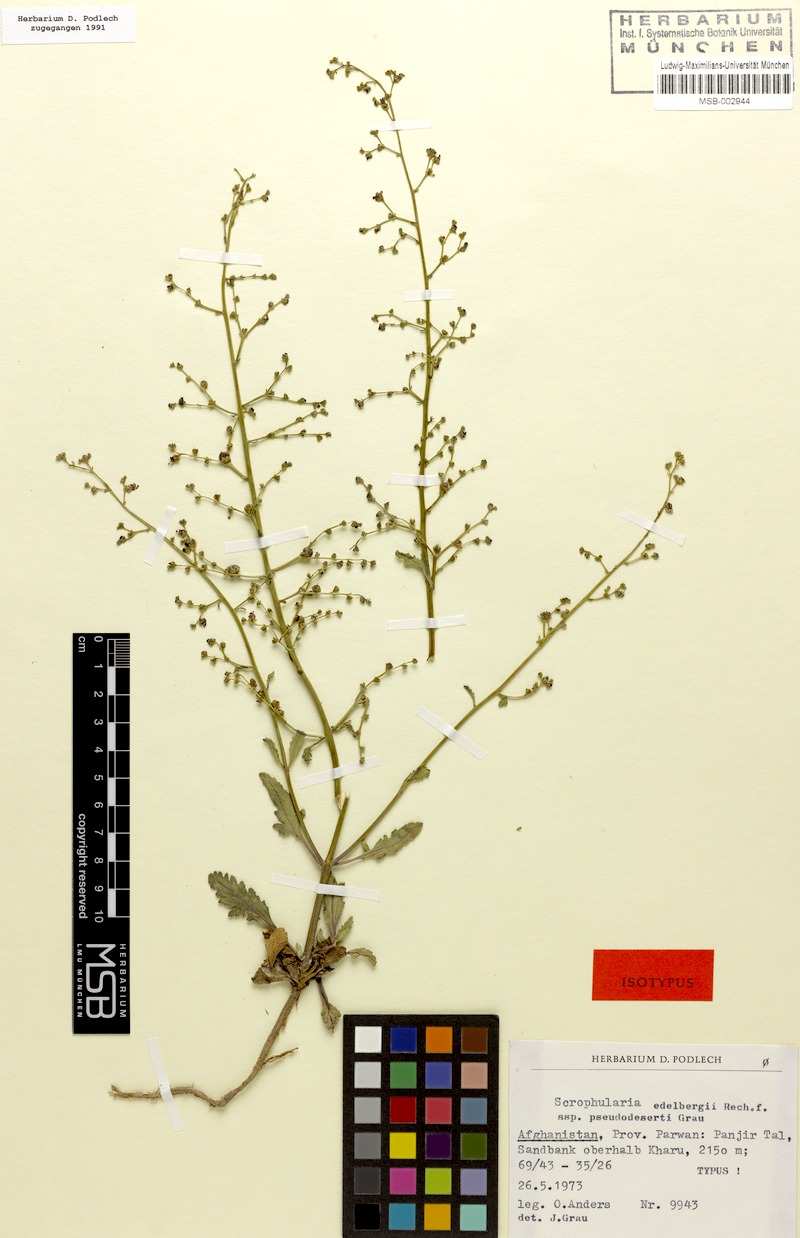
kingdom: Plantae
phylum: Tracheophyta
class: Magnoliopsida
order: Lamiales
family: Scrophulariaceae
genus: Scrophularia
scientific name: Scrophularia edelbergii
